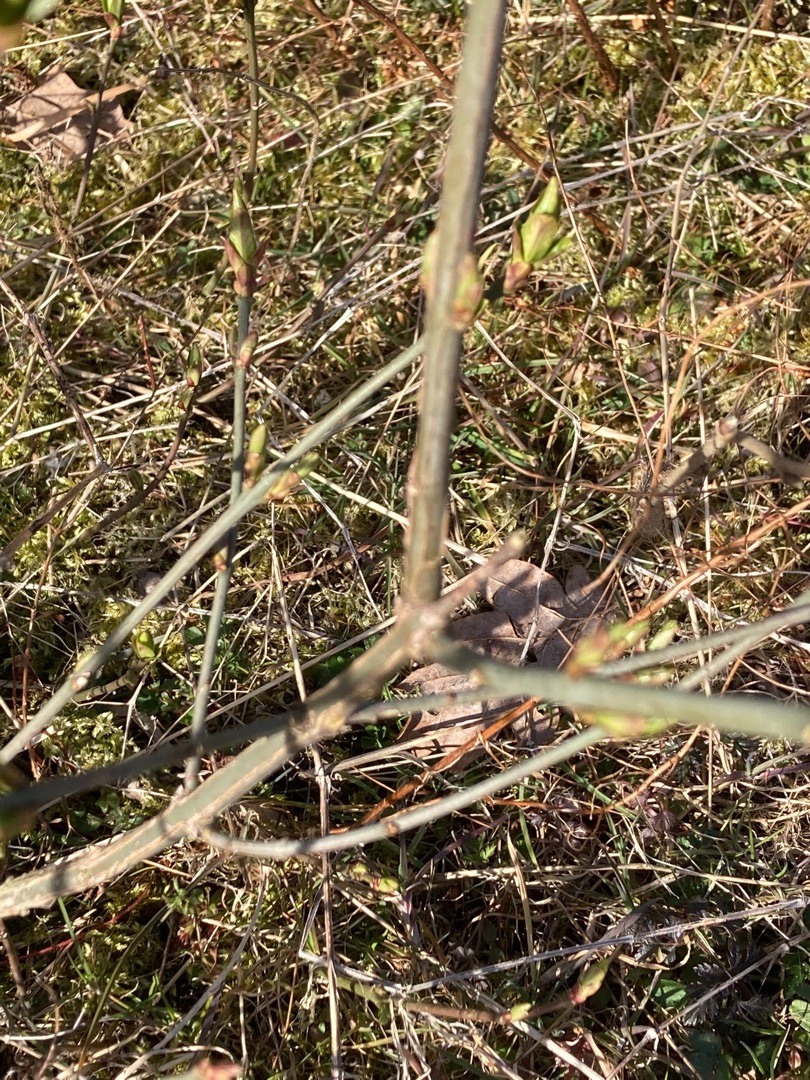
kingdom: Plantae
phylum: Tracheophyta
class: Magnoliopsida
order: Celastrales
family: Celastraceae
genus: Euonymus
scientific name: Euonymus europaeus
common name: Benved
